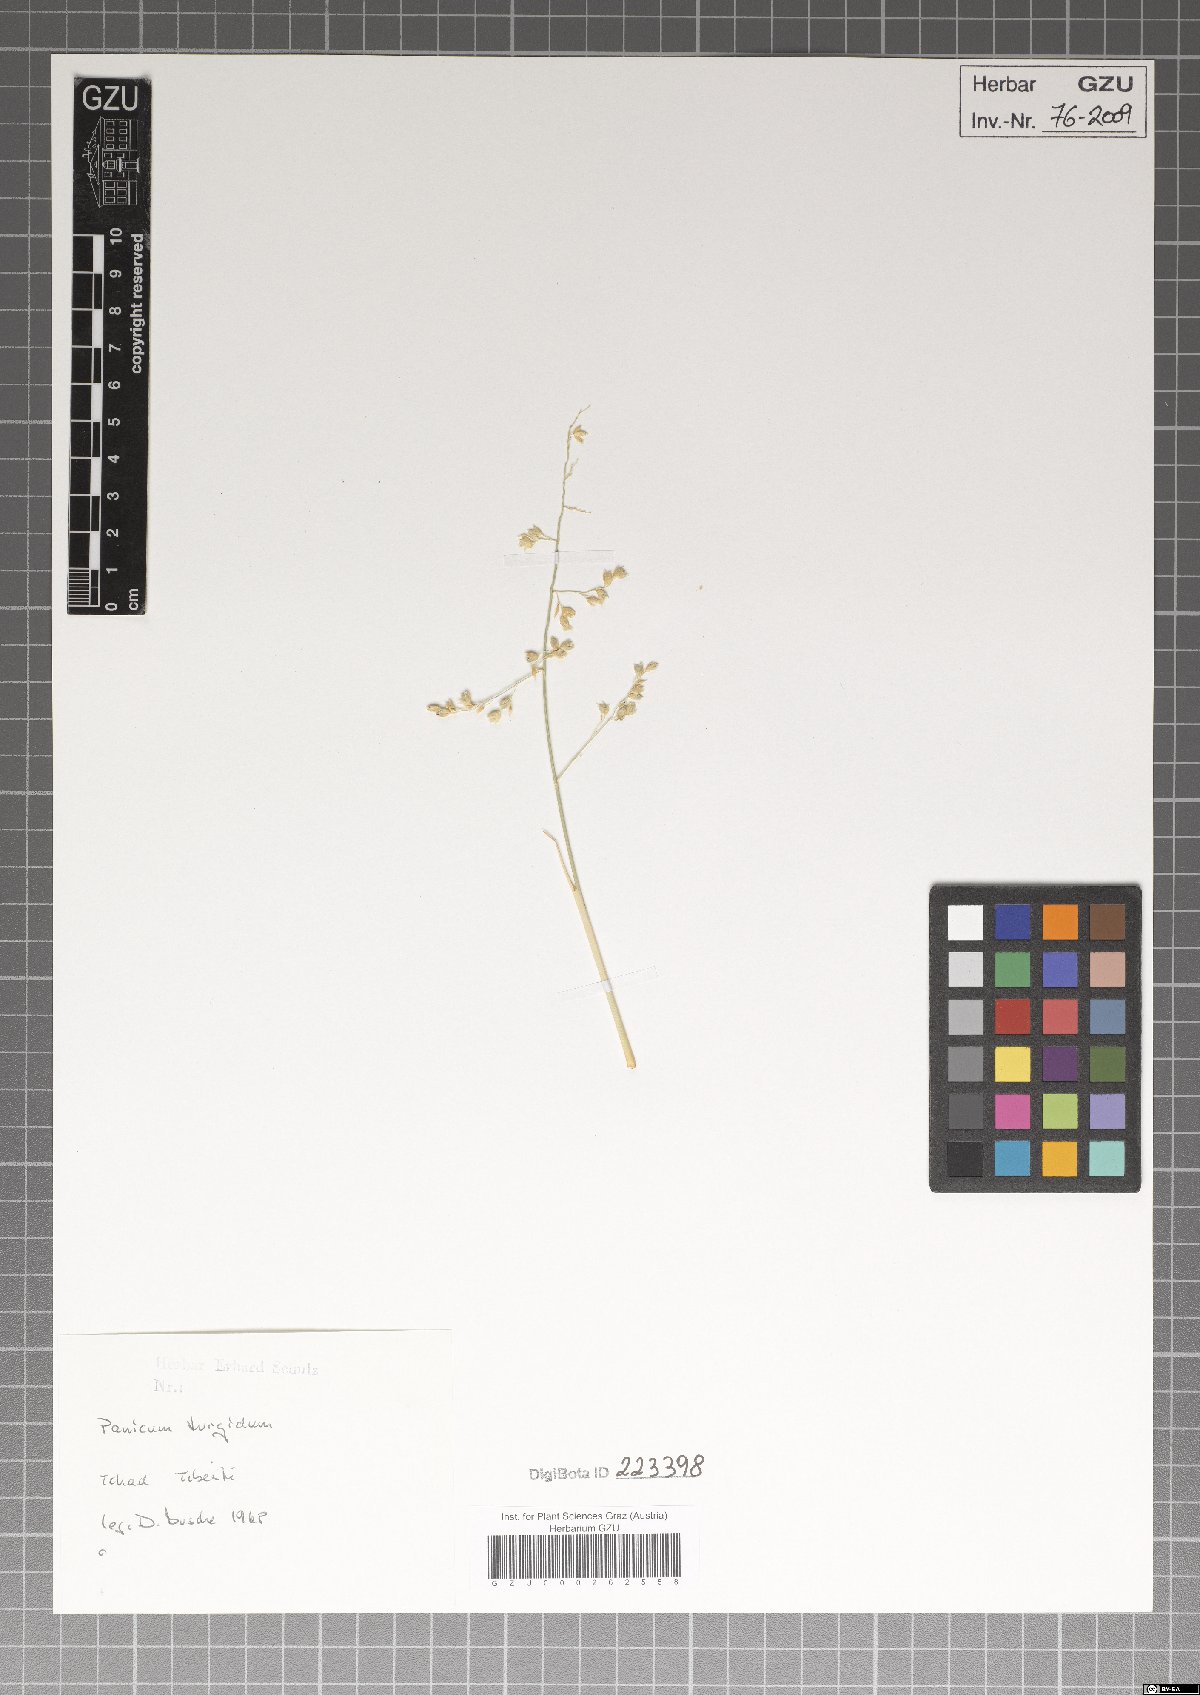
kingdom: Plantae
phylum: Tracheophyta
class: Liliopsida
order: Poales
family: Poaceae
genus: Panicum
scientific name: Panicum turgidum
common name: Desert grass
